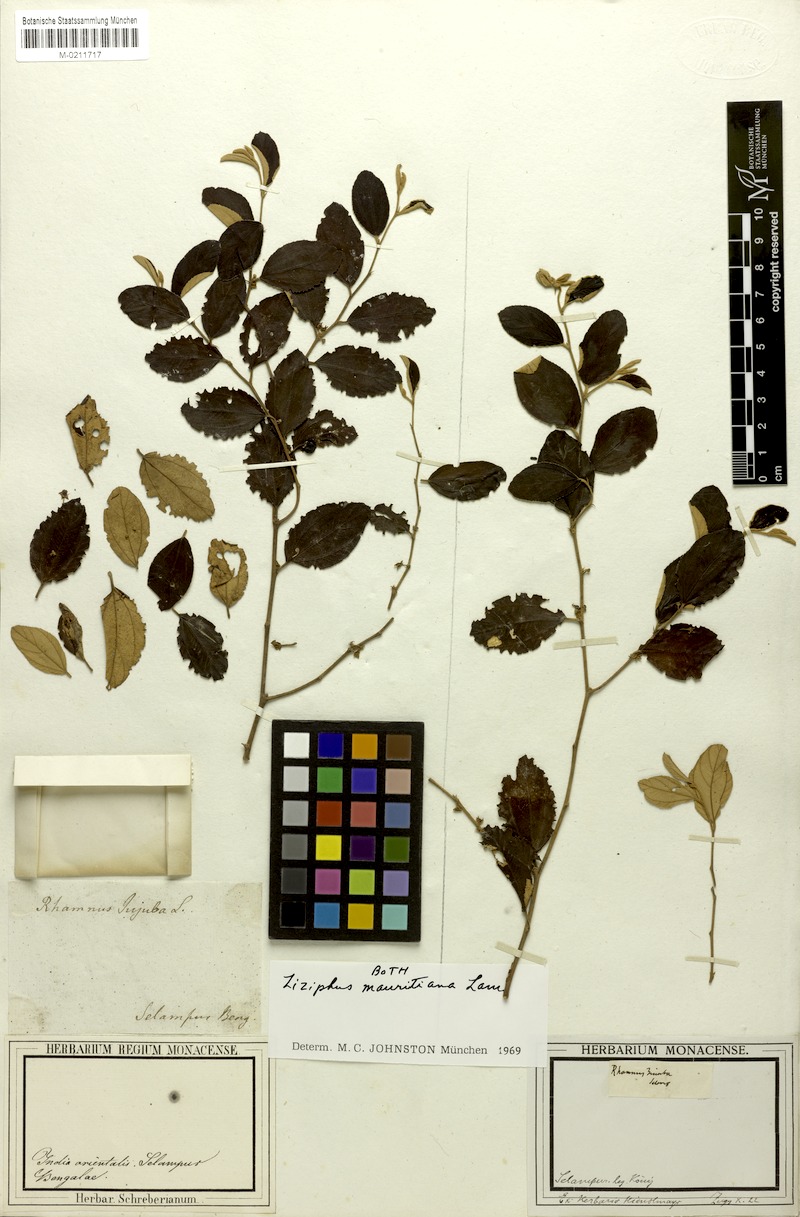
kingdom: Plantae
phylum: Tracheophyta
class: Magnoliopsida
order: Rosales
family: Rhamnaceae
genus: Ziziphus
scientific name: Ziziphus mauritiana
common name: Indian jujube
